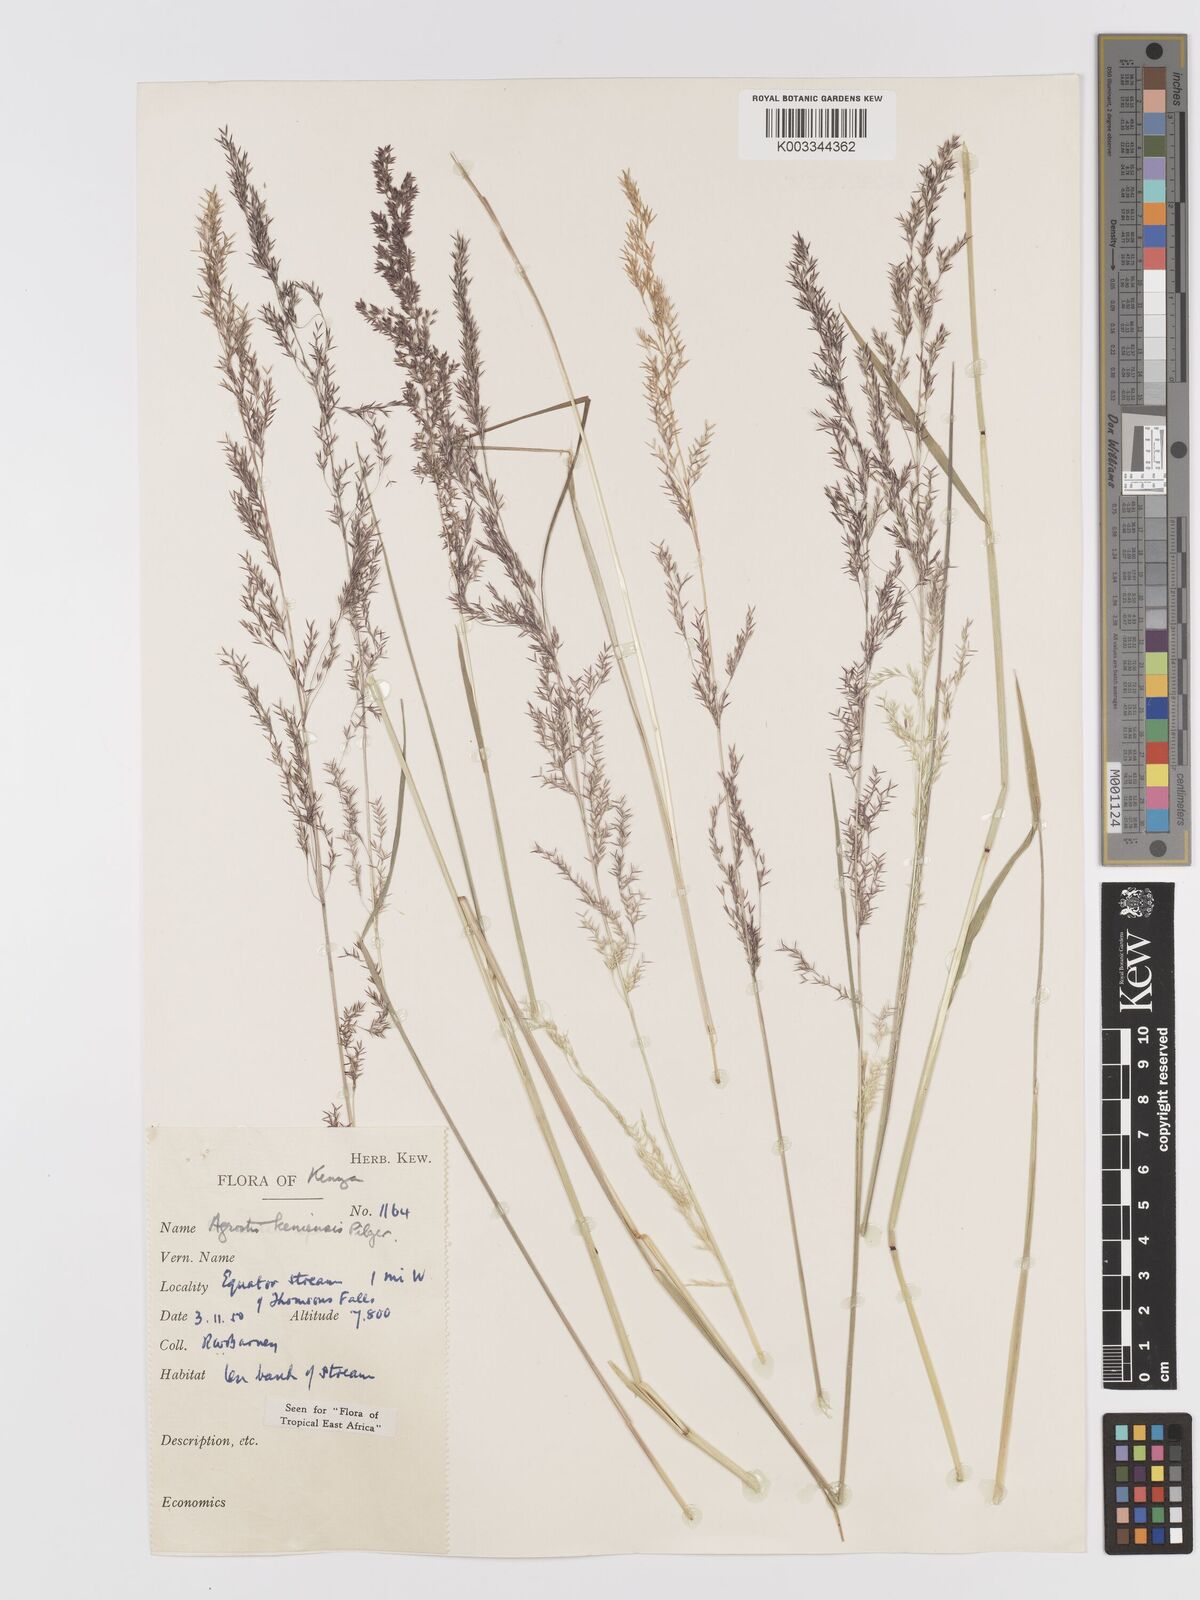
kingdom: Plantae
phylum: Tracheophyta
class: Liliopsida
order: Poales
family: Poaceae
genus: Agrostis
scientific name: Agrostis keniensis
